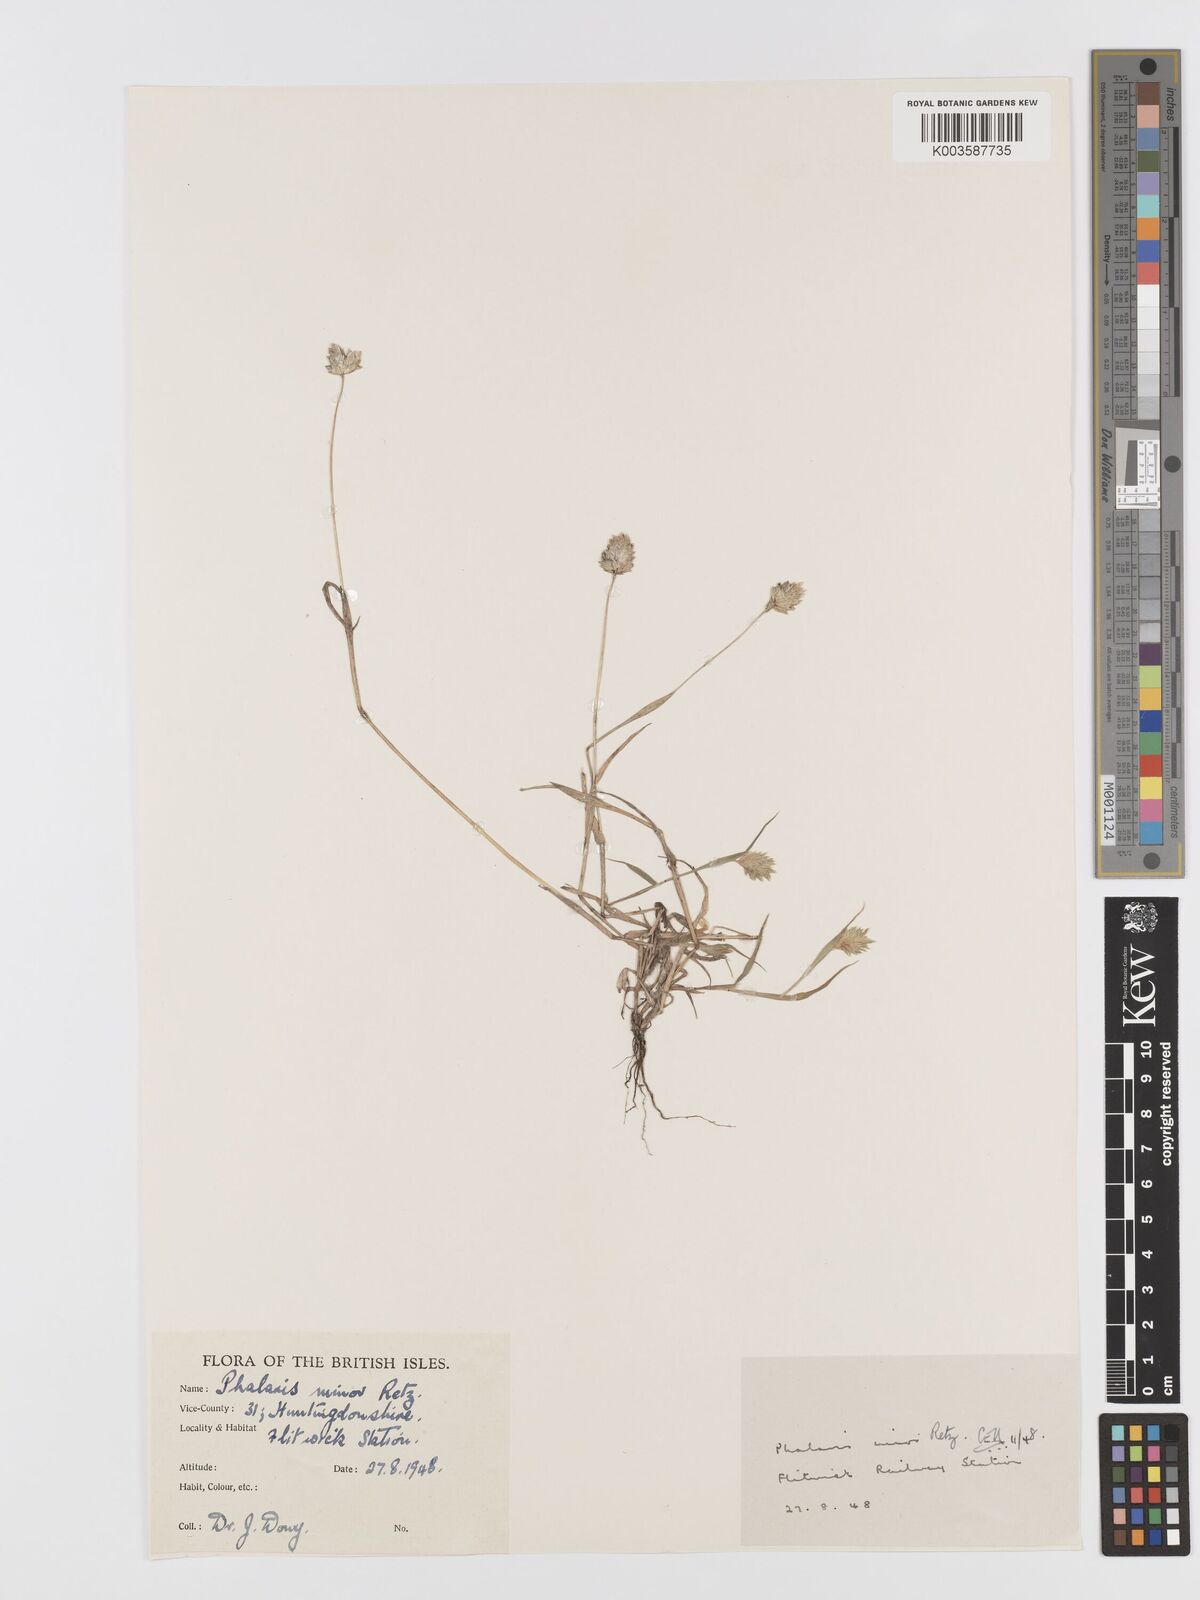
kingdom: Plantae
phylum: Tracheophyta
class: Liliopsida
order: Poales
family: Poaceae
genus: Phalaris
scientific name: Phalaris minor
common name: Littleseed canarygrass
